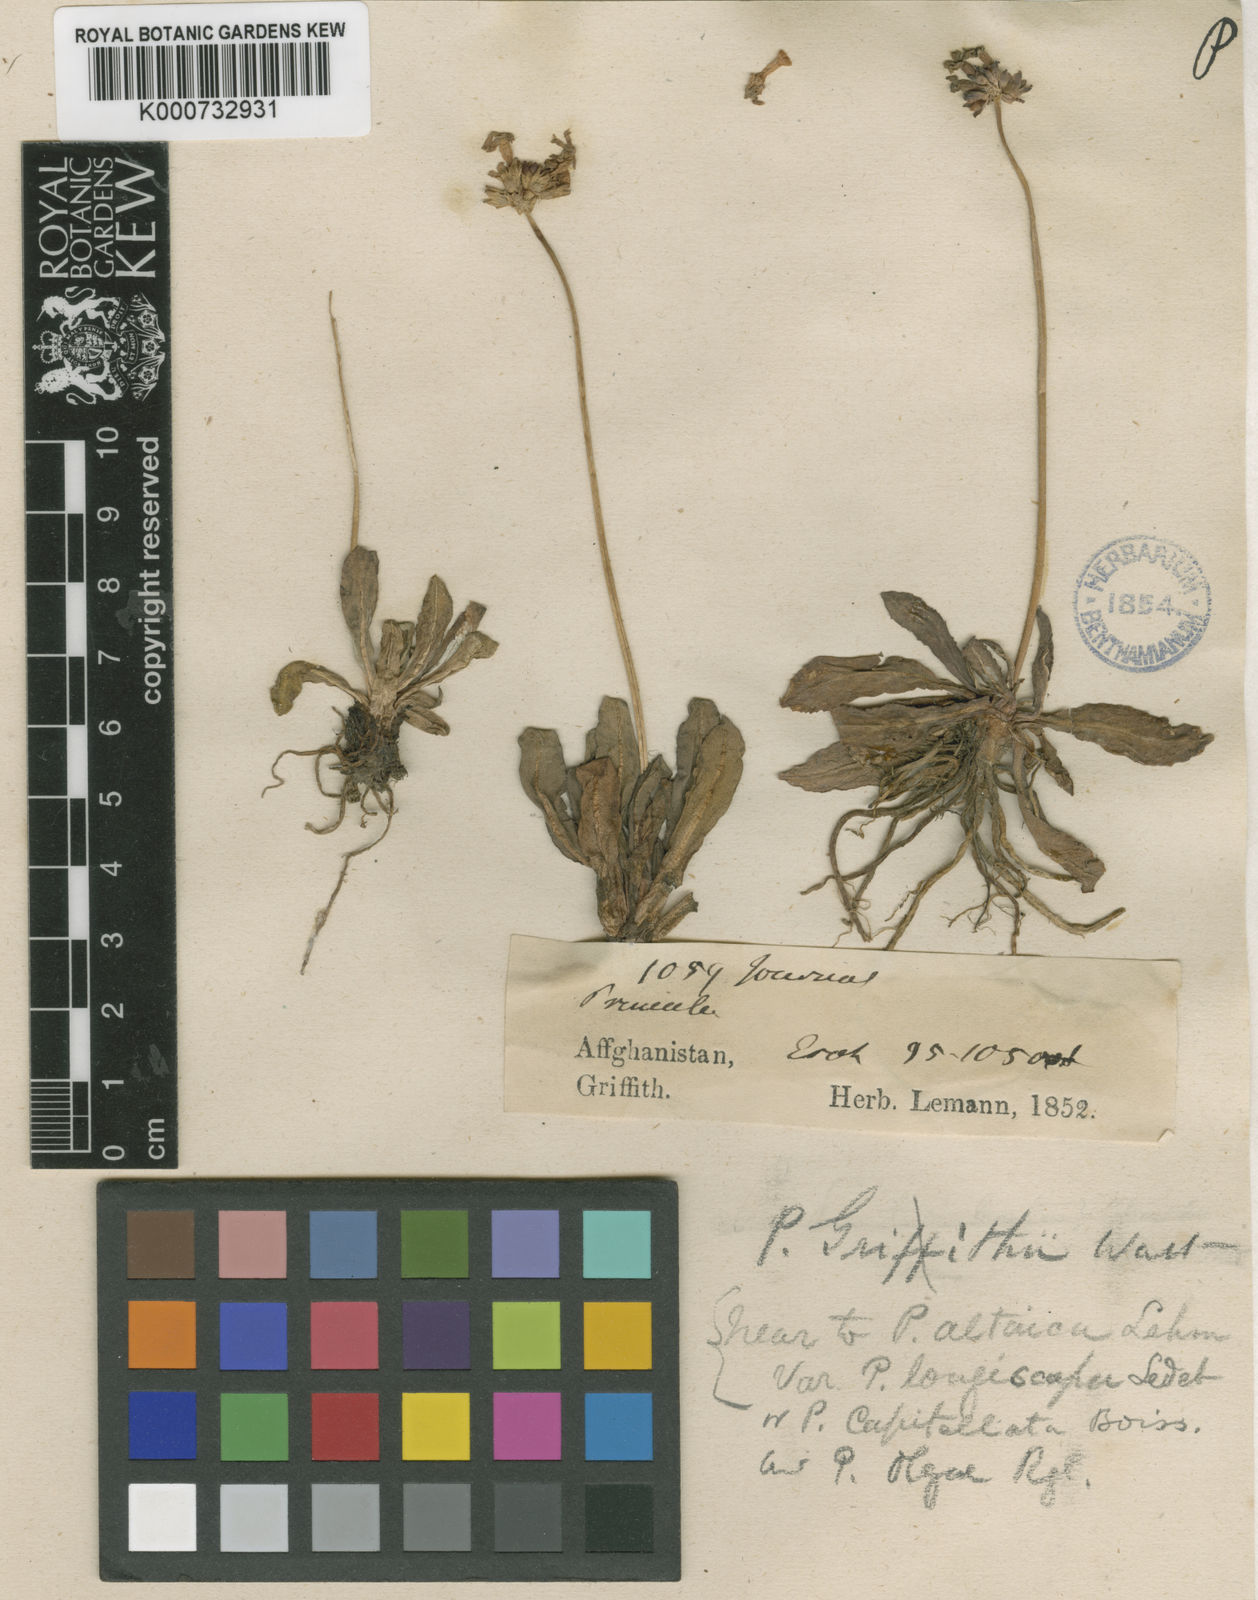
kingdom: Plantae
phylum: Tracheophyta
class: Magnoliopsida
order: Ericales
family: Primulaceae
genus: Primula
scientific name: Primula capitellata
